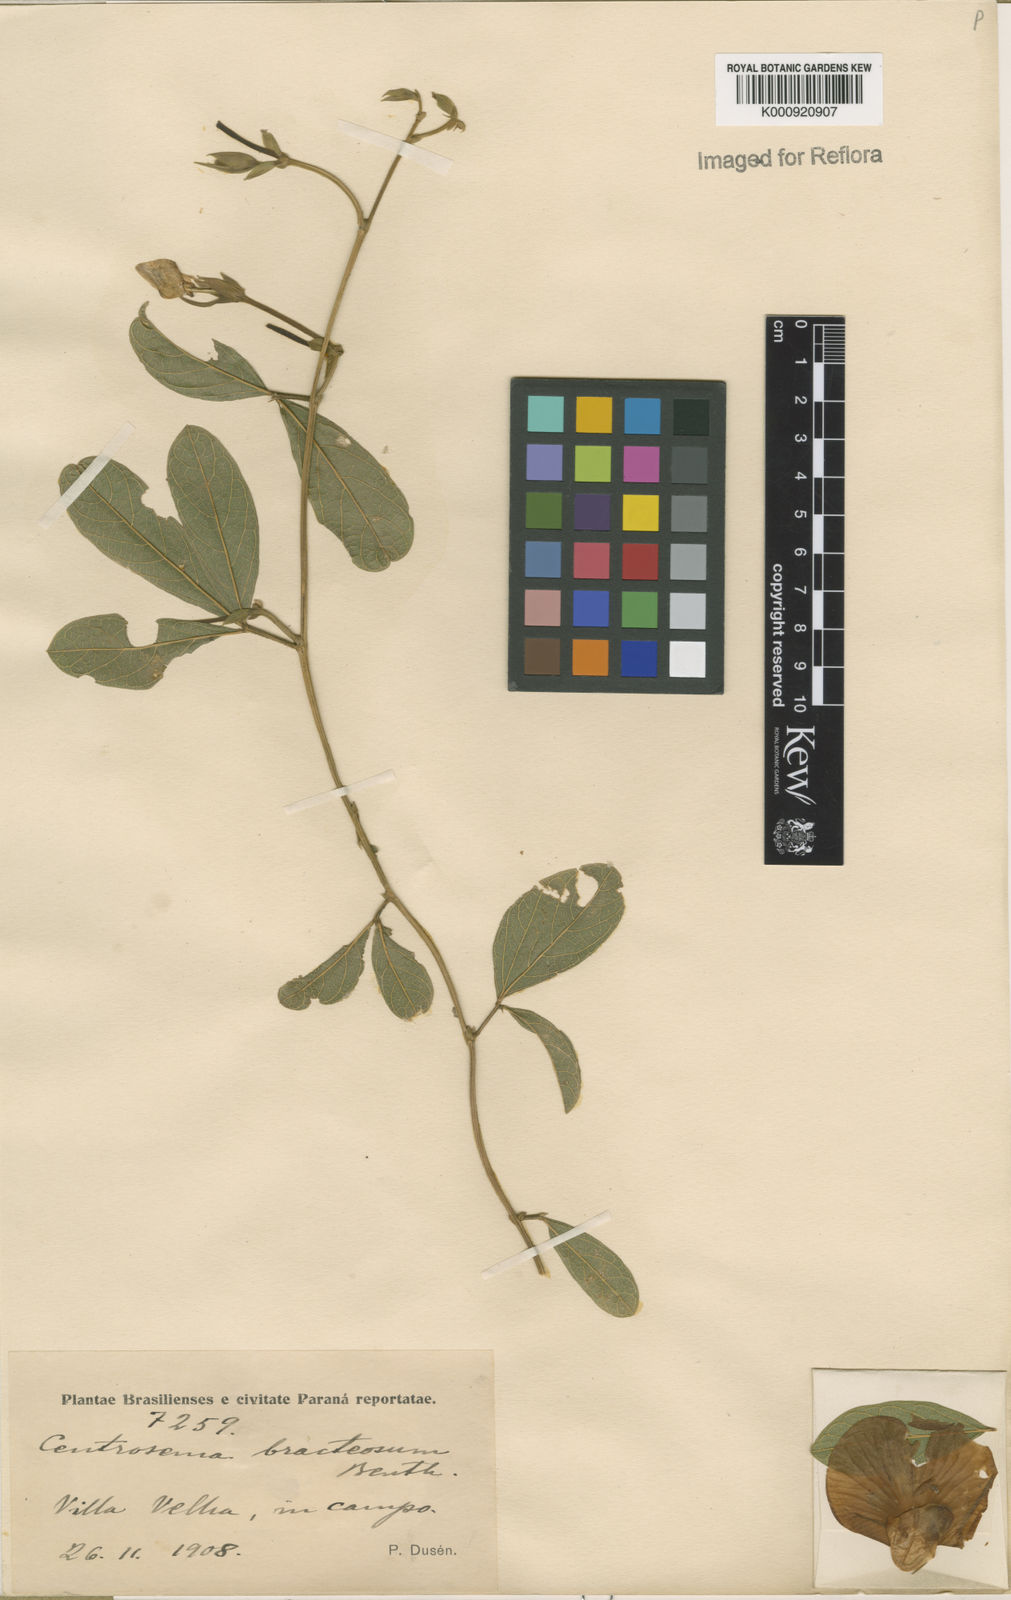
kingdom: Plantae
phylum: Tracheophyta
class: Magnoliopsida
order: Fabales
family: Fabaceae
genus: Centrosema
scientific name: Centrosema bracteosum
